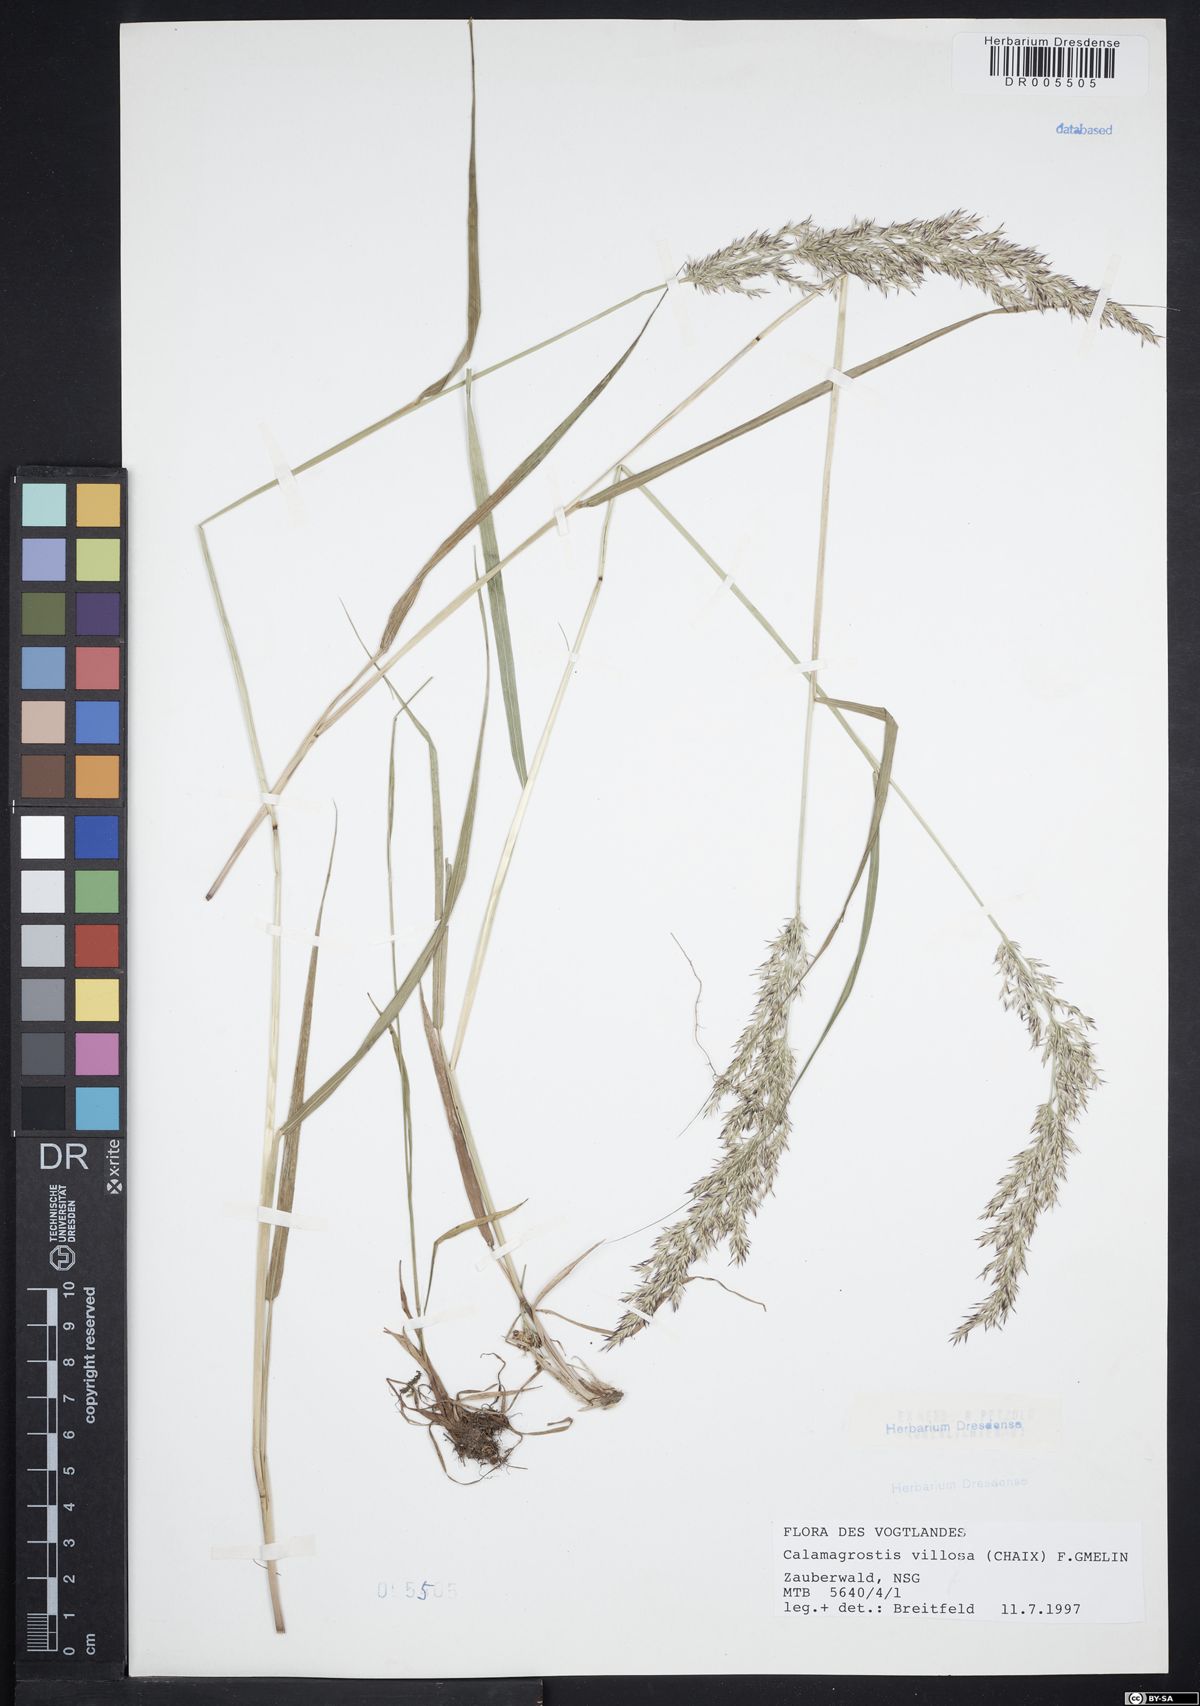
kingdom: Plantae
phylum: Tracheophyta
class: Liliopsida
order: Poales
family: Poaceae
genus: Calamagrostis
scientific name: Calamagrostis villosa
